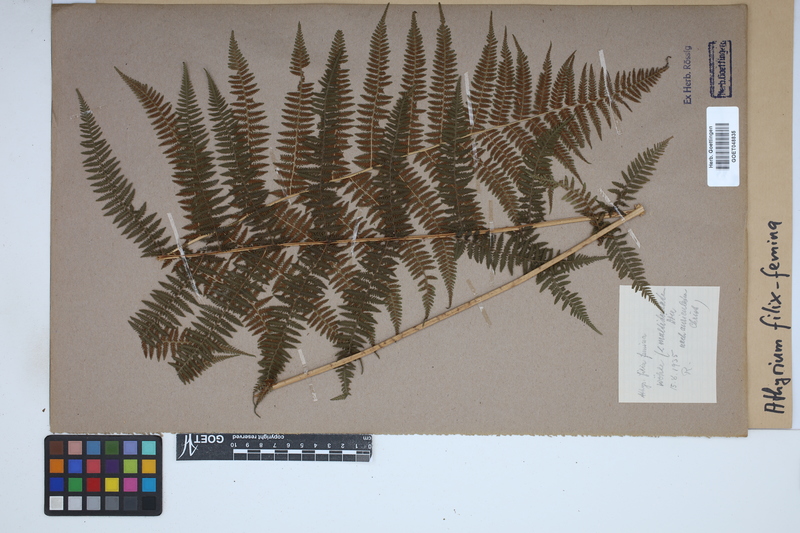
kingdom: Plantae
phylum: Tracheophyta
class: Polypodiopsida
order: Polypodiales
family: Athyriaceae
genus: Athyrium
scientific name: Athyrium filix-femina
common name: Lady fern
